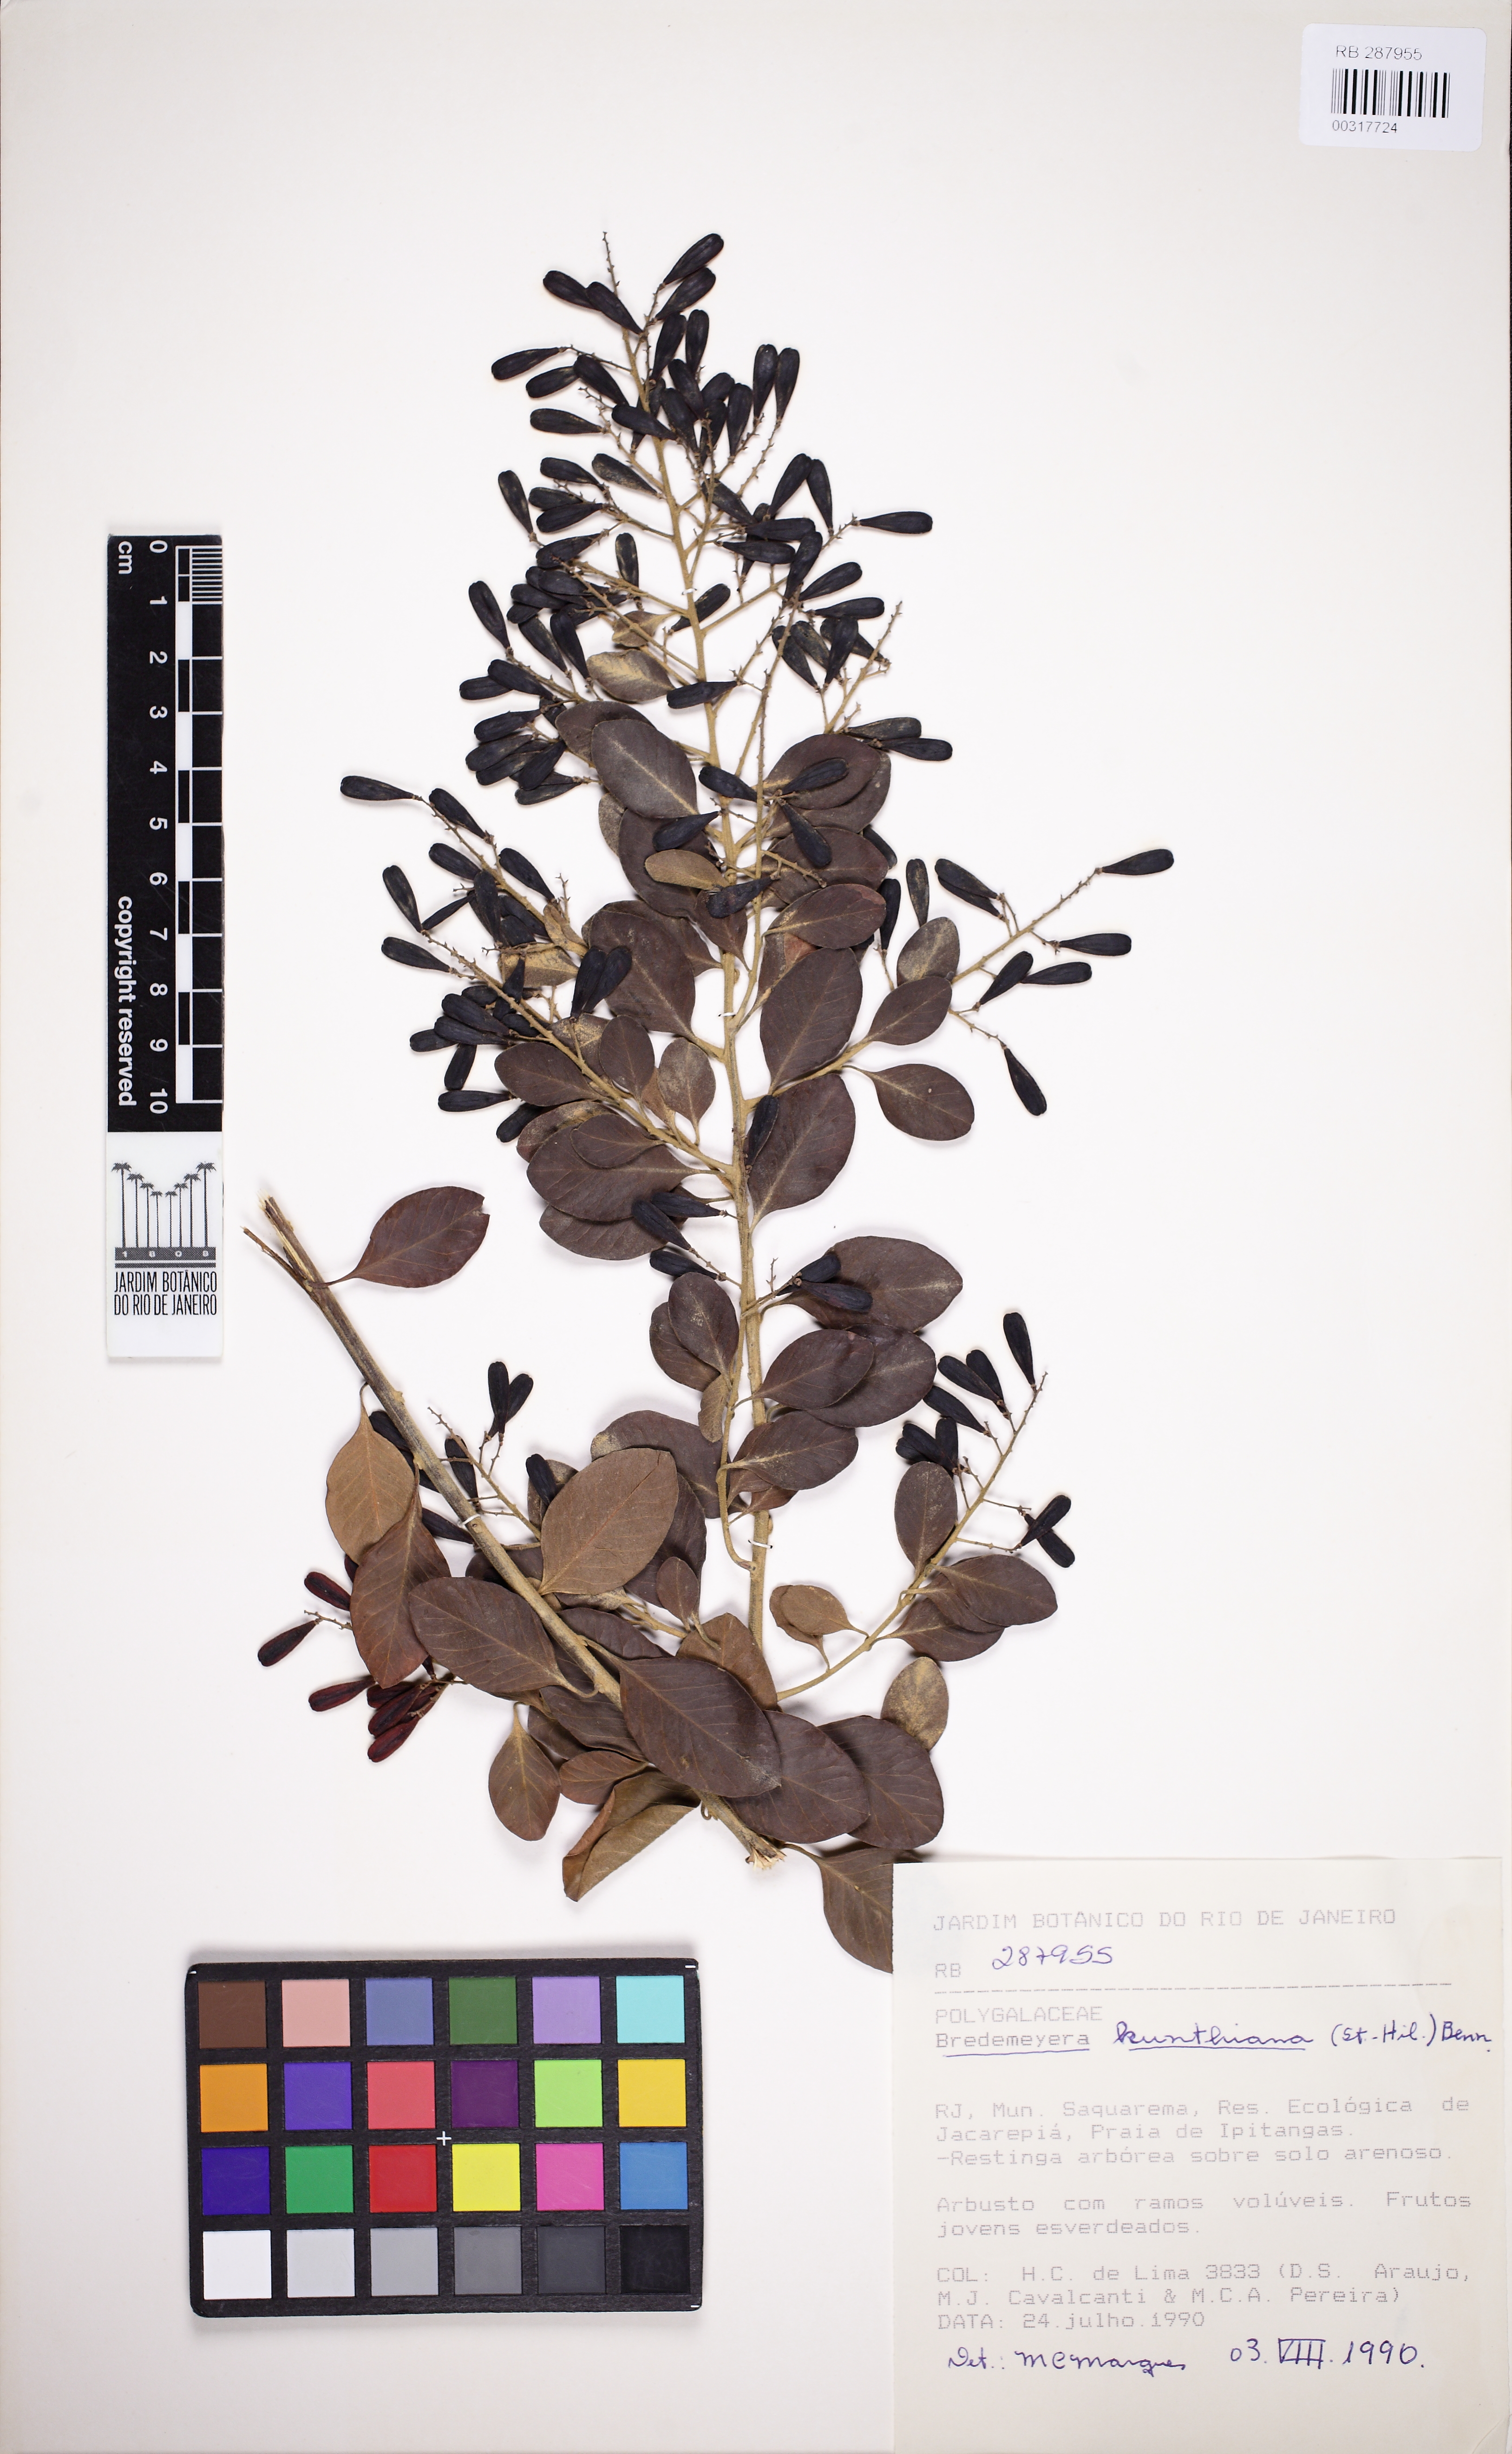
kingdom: Plantae
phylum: Tracheophyta
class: Magnoliopsida
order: Fabales
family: Polygalaceae
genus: Bredemeyera
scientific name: Bredemeyera hebeclada
